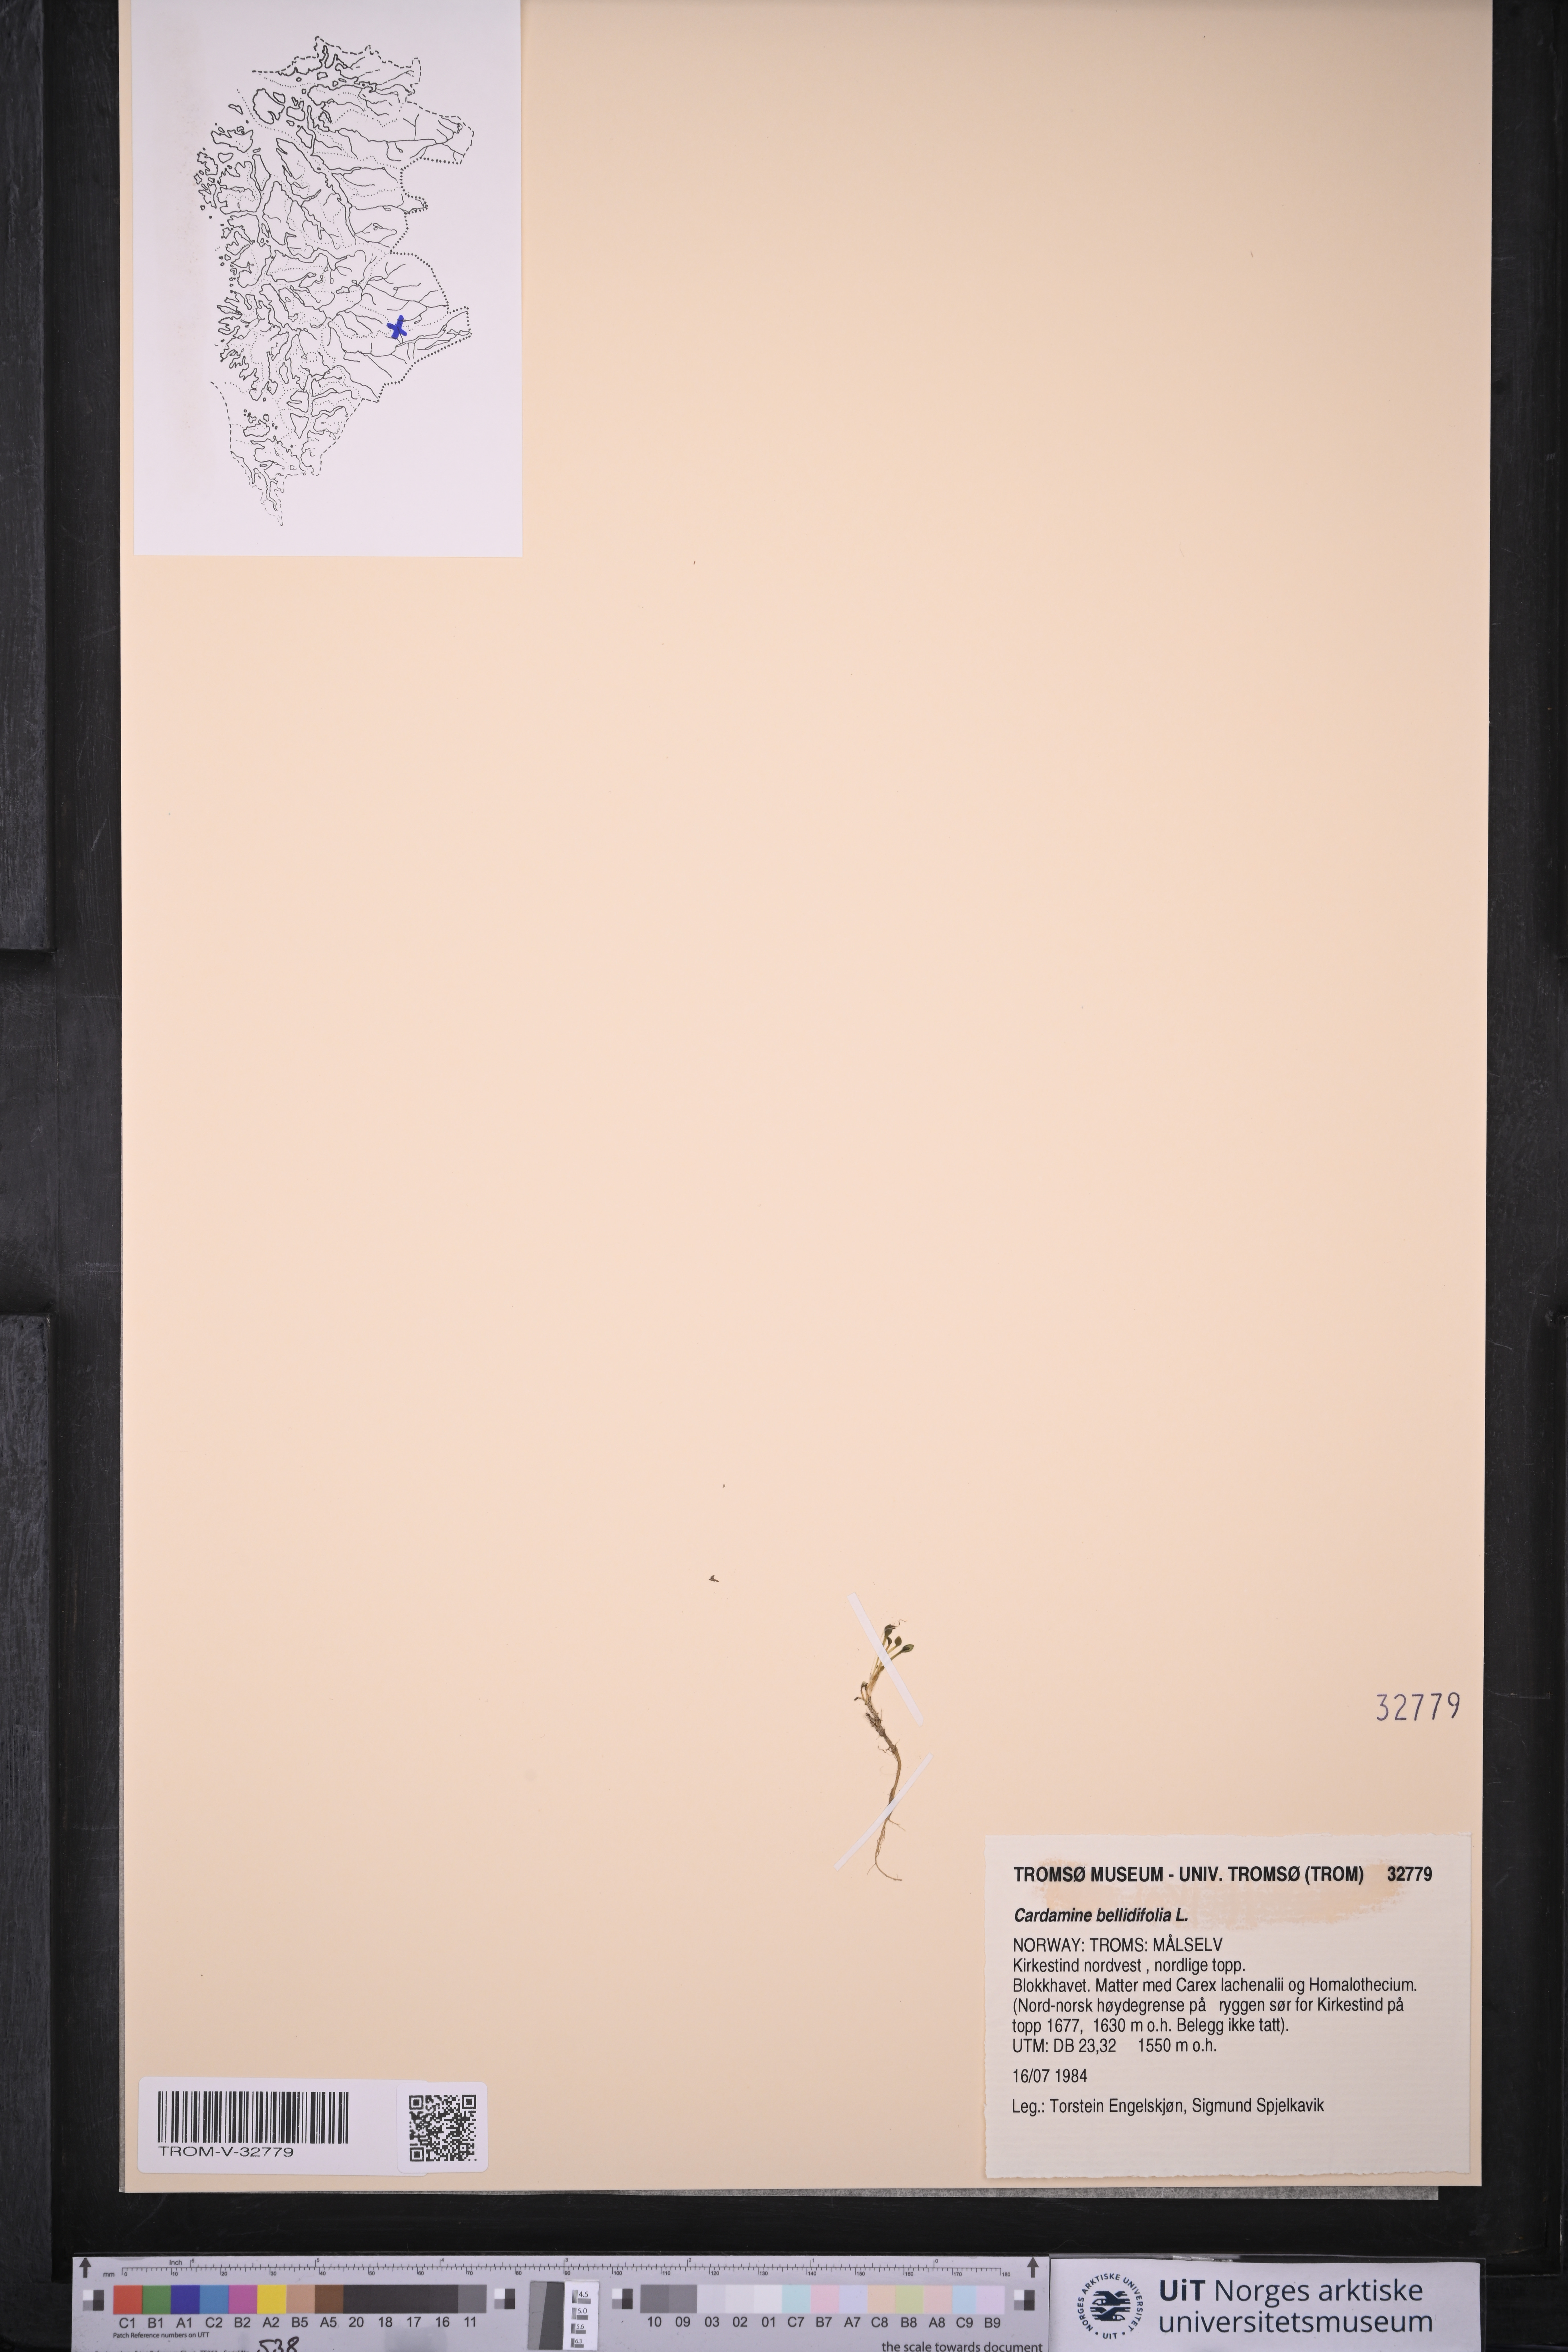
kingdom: Plantae
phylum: Tracheophyta
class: Magnoliopsida
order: Brassicales
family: Brassicaceae
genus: Cardamine
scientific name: Cardamine bellidifolia
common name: Alpine bittercress
